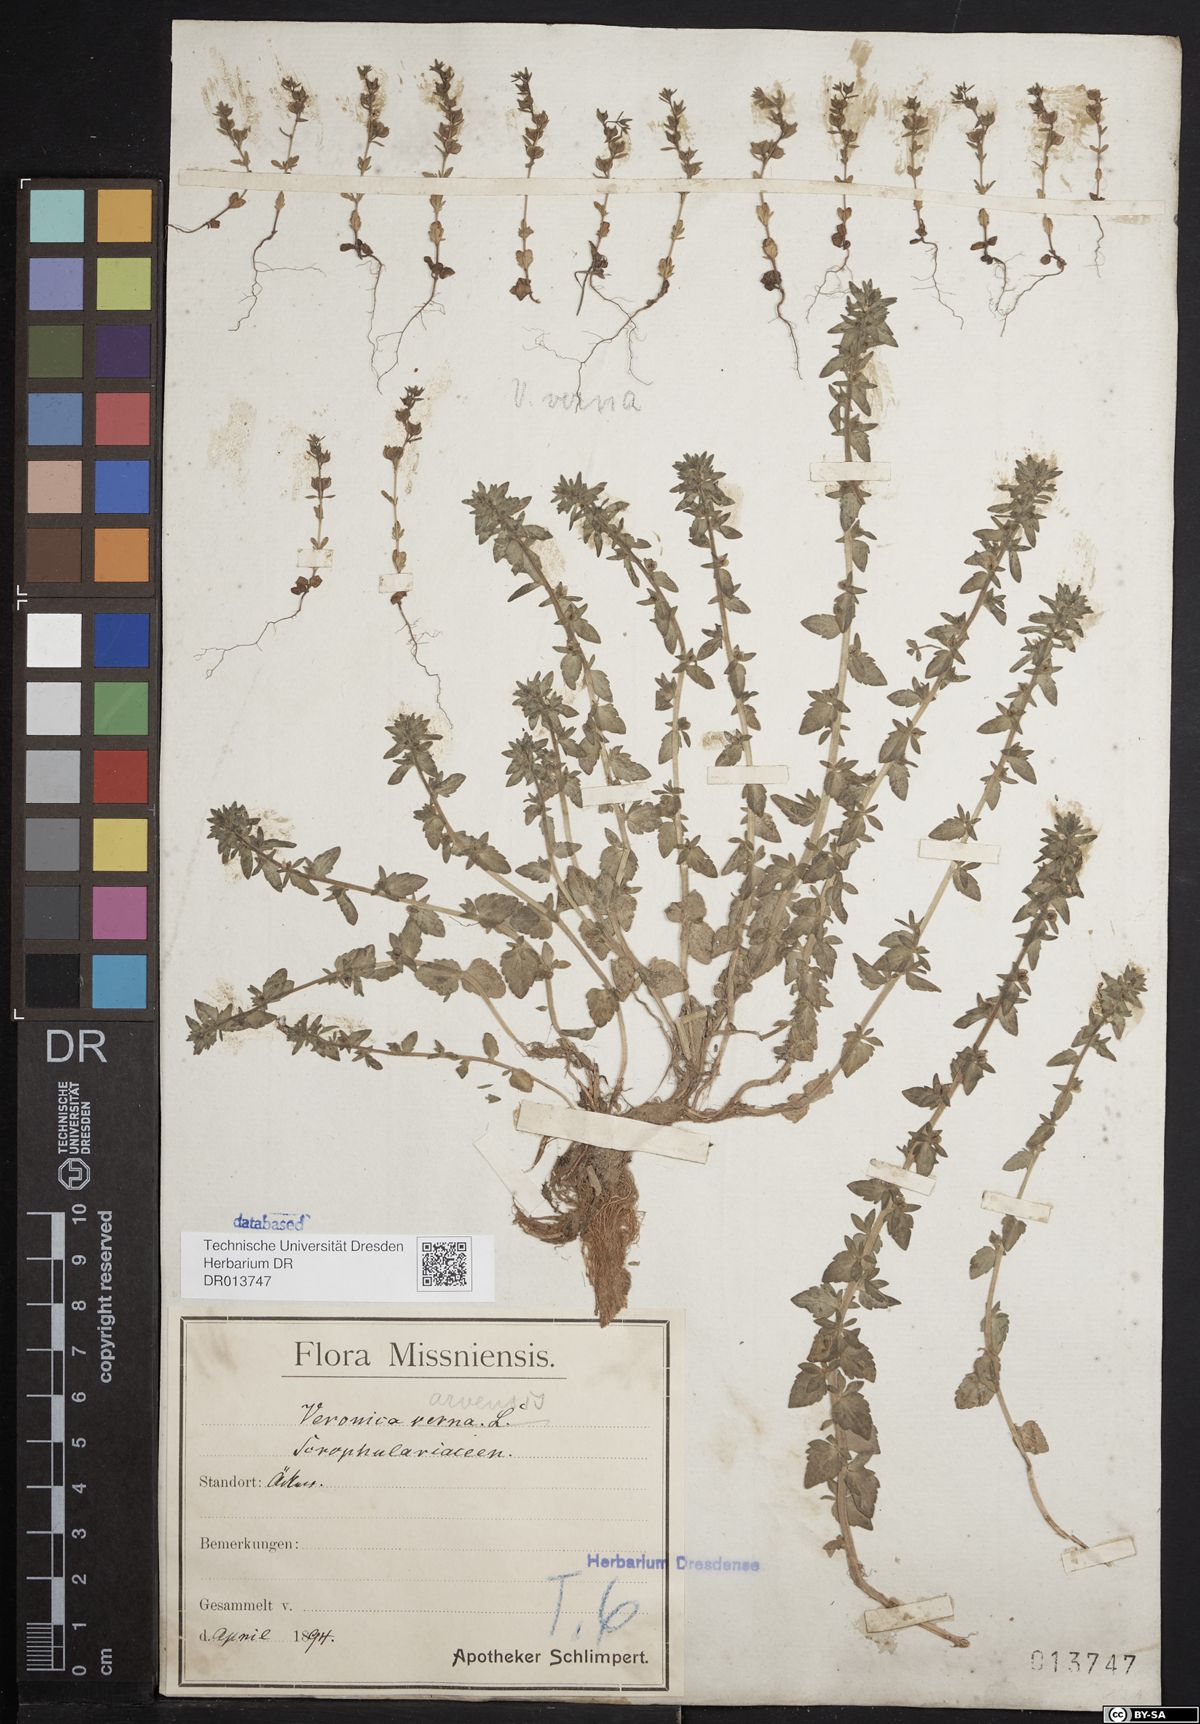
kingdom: Plantae
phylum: Tracheophyta
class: Magnoliopsida
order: Lamiales
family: Plantaginaceae
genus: Veronica
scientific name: Veronica arvensis
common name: Corn speedwell
